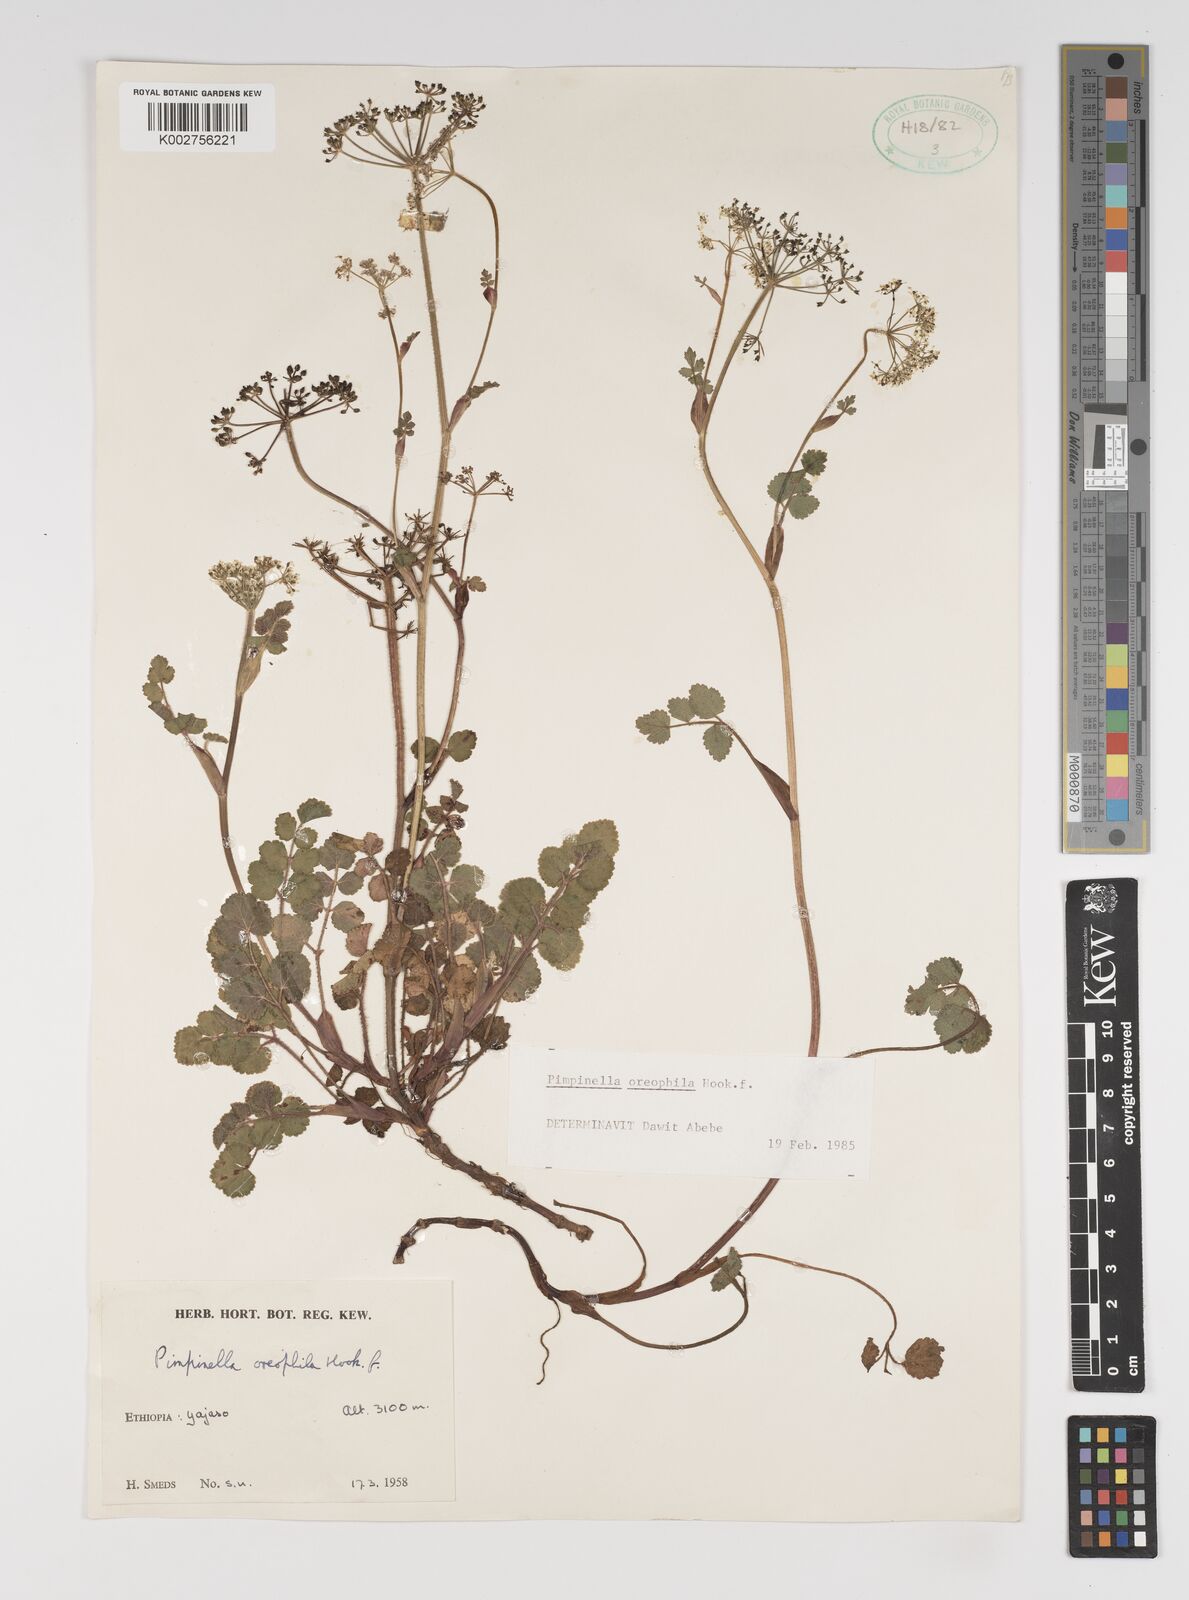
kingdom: Plantae
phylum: Tracheophyta
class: Magnoliopsida
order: Apiales
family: Apiaceae
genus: Pimpinella
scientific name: Pimpinella oreophila
